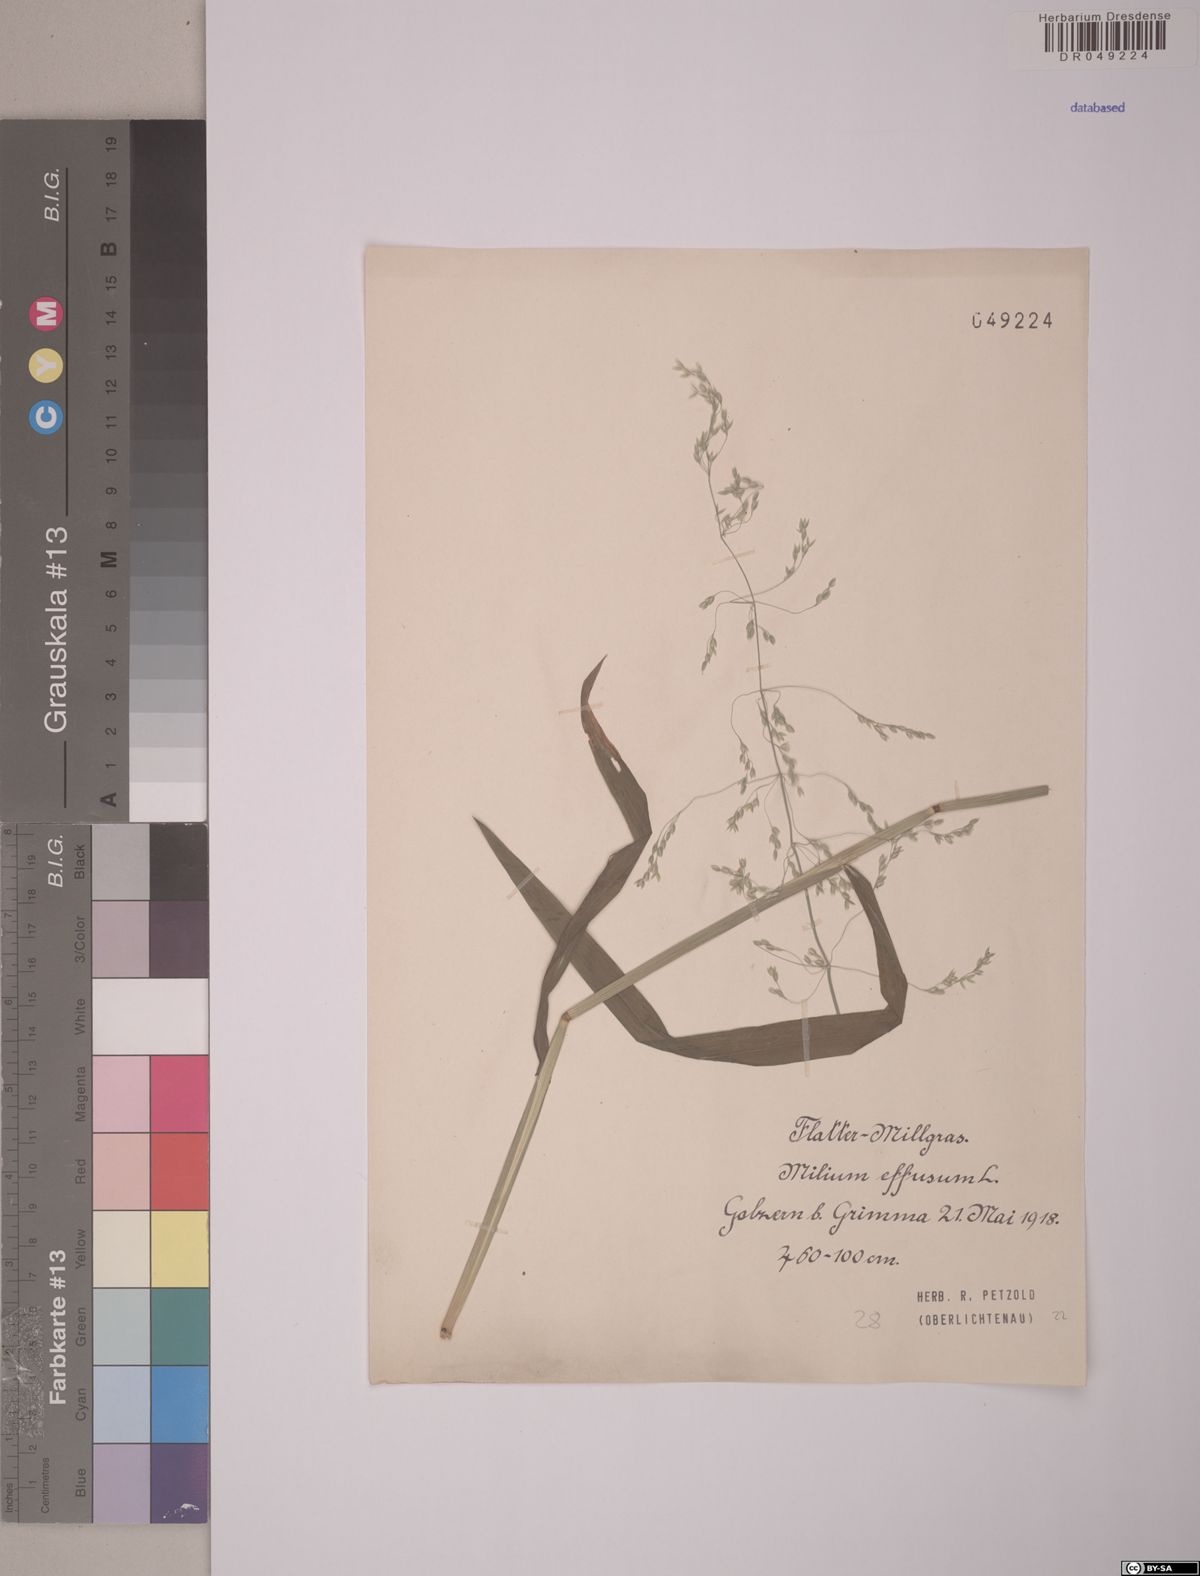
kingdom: Plantae
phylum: Tracheophyta
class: Liliopsida
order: Poales
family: Poaceae
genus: Milium
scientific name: Milium effusum
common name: Wood millet
